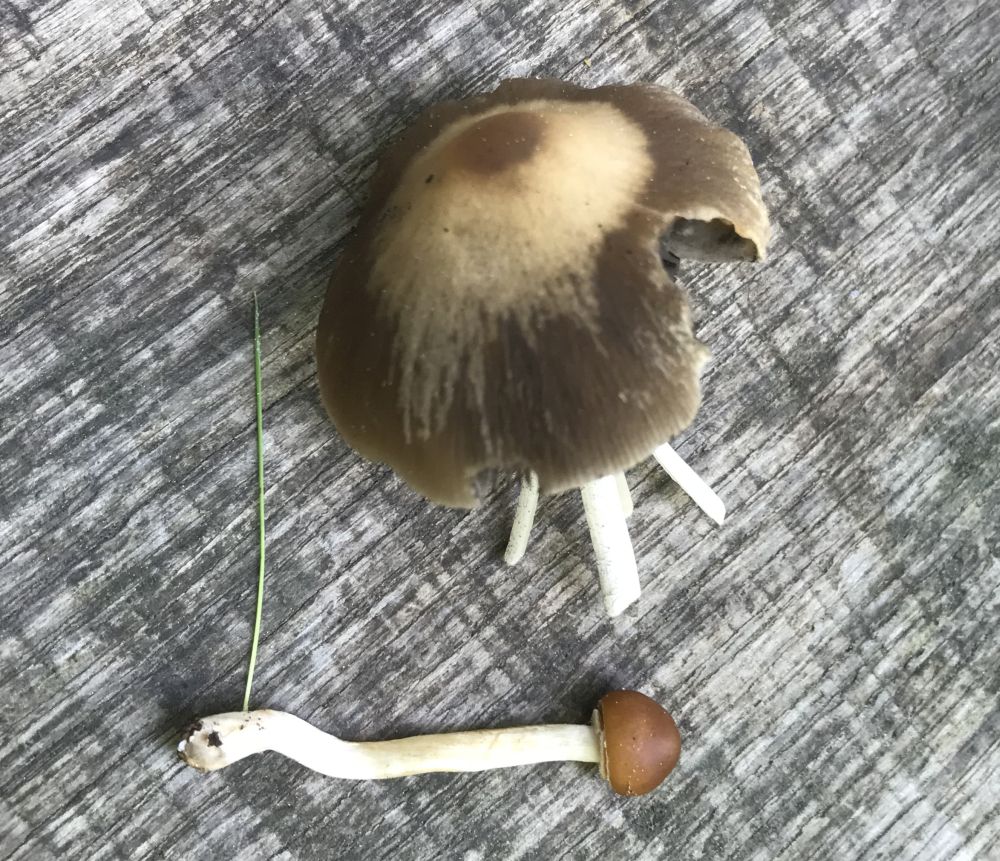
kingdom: Fungi
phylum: Basidiomycota
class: Agaricomycetes
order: Agaricales
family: Psathyrellaceae
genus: Psathyrella
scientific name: Psathyrella
